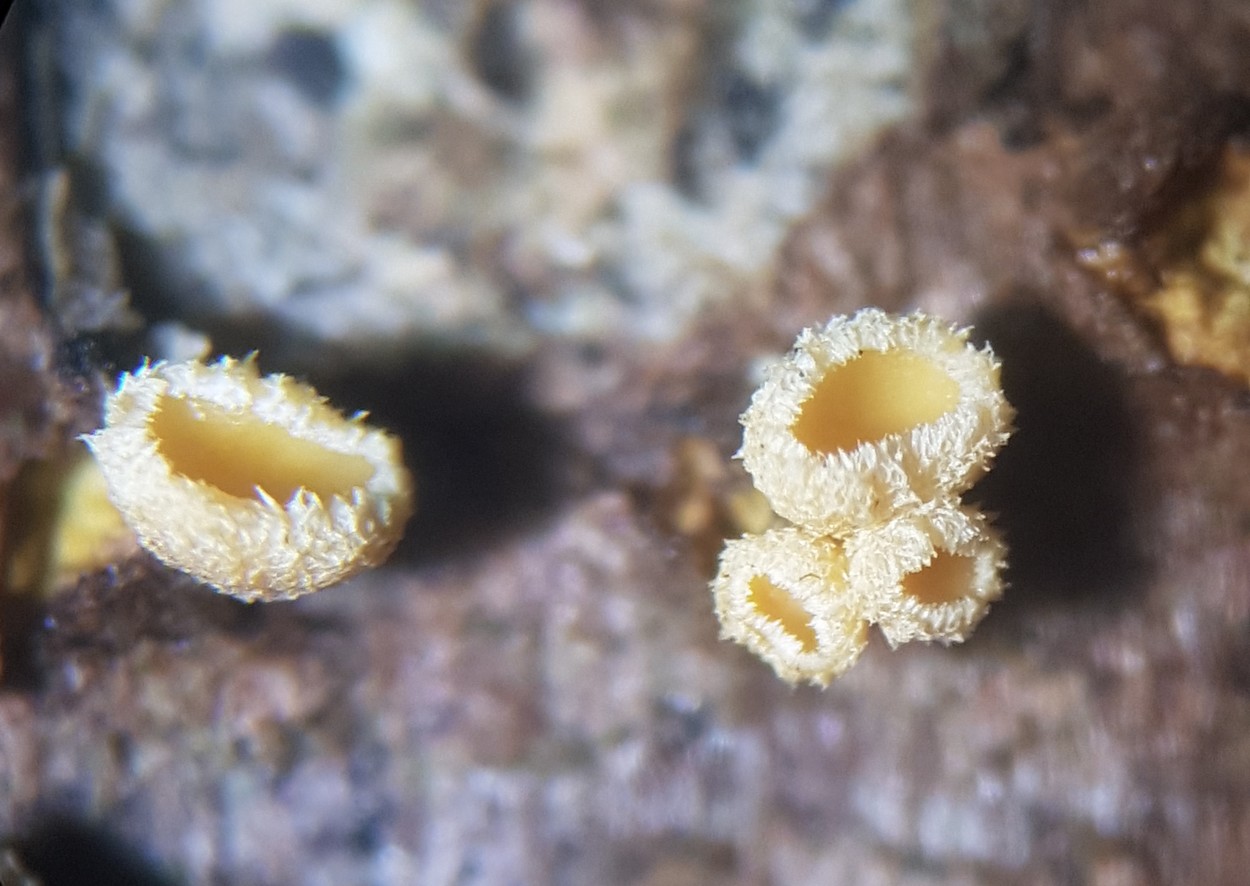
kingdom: Fungi
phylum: Ascomycota
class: Leotiomycetes
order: Helotiales
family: Lachnaceae
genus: Lachnellula
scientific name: Lachnellula subtilissima
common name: gran-frynseskive
